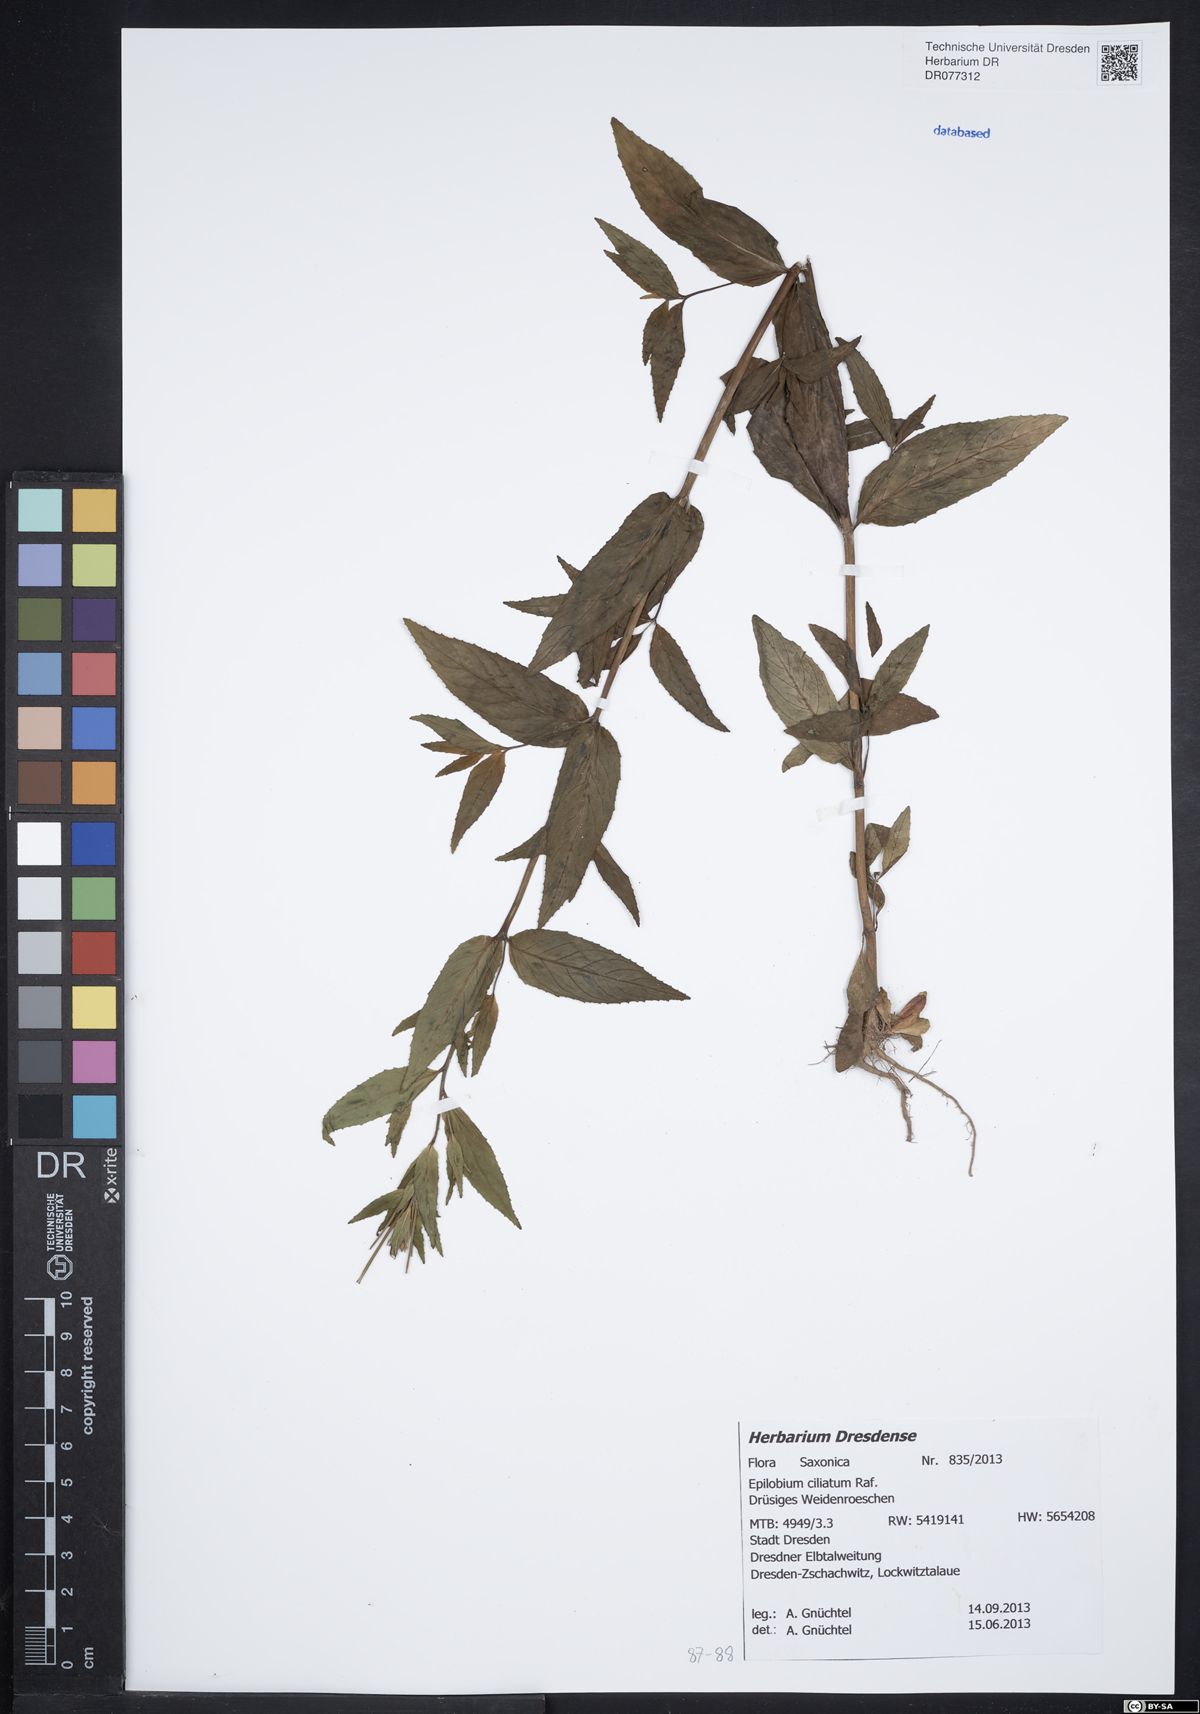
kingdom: Plantae
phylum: Tracheophyta
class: Magnoliopsida
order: Myrtales
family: Onagraceae
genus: Epilobium
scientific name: Epilobium ciliatum
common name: American willowherb
